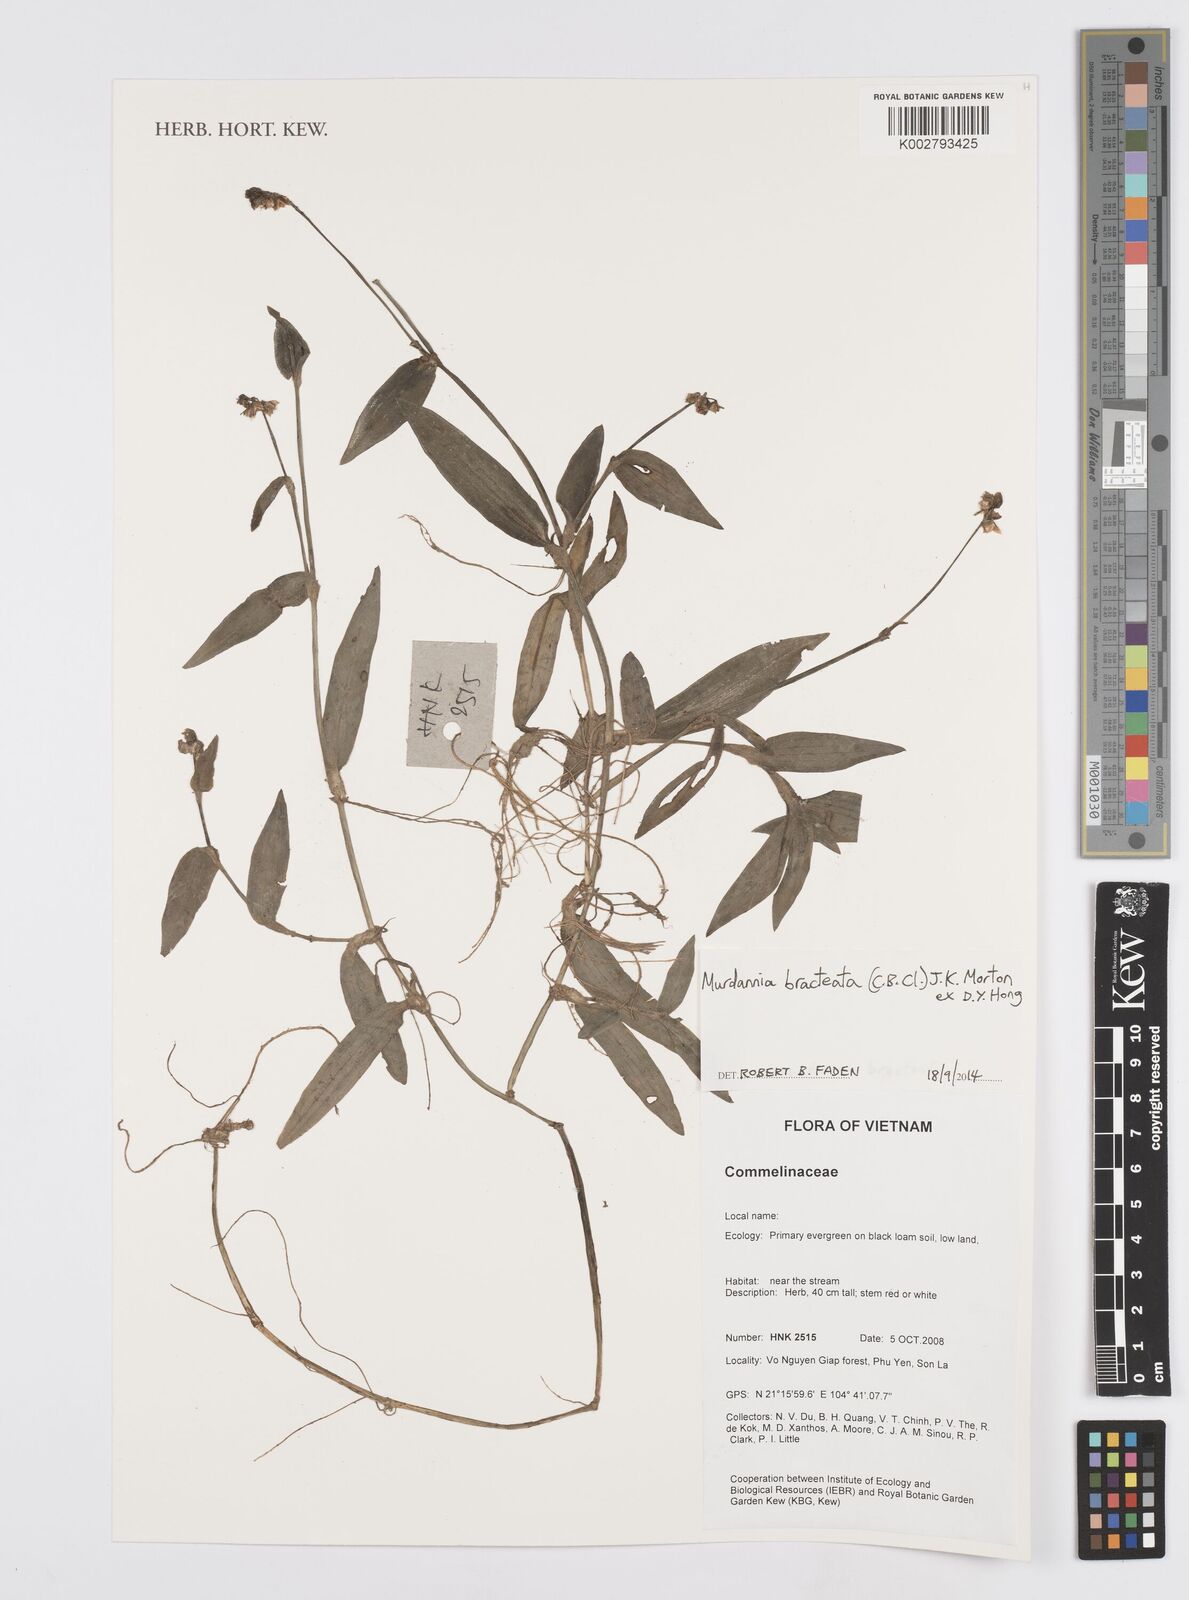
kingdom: Plantae
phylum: Tracheophyta
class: Liliopsida
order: Commelinales
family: Commelinaceae
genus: Murdannia
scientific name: Murdannia bracteata
